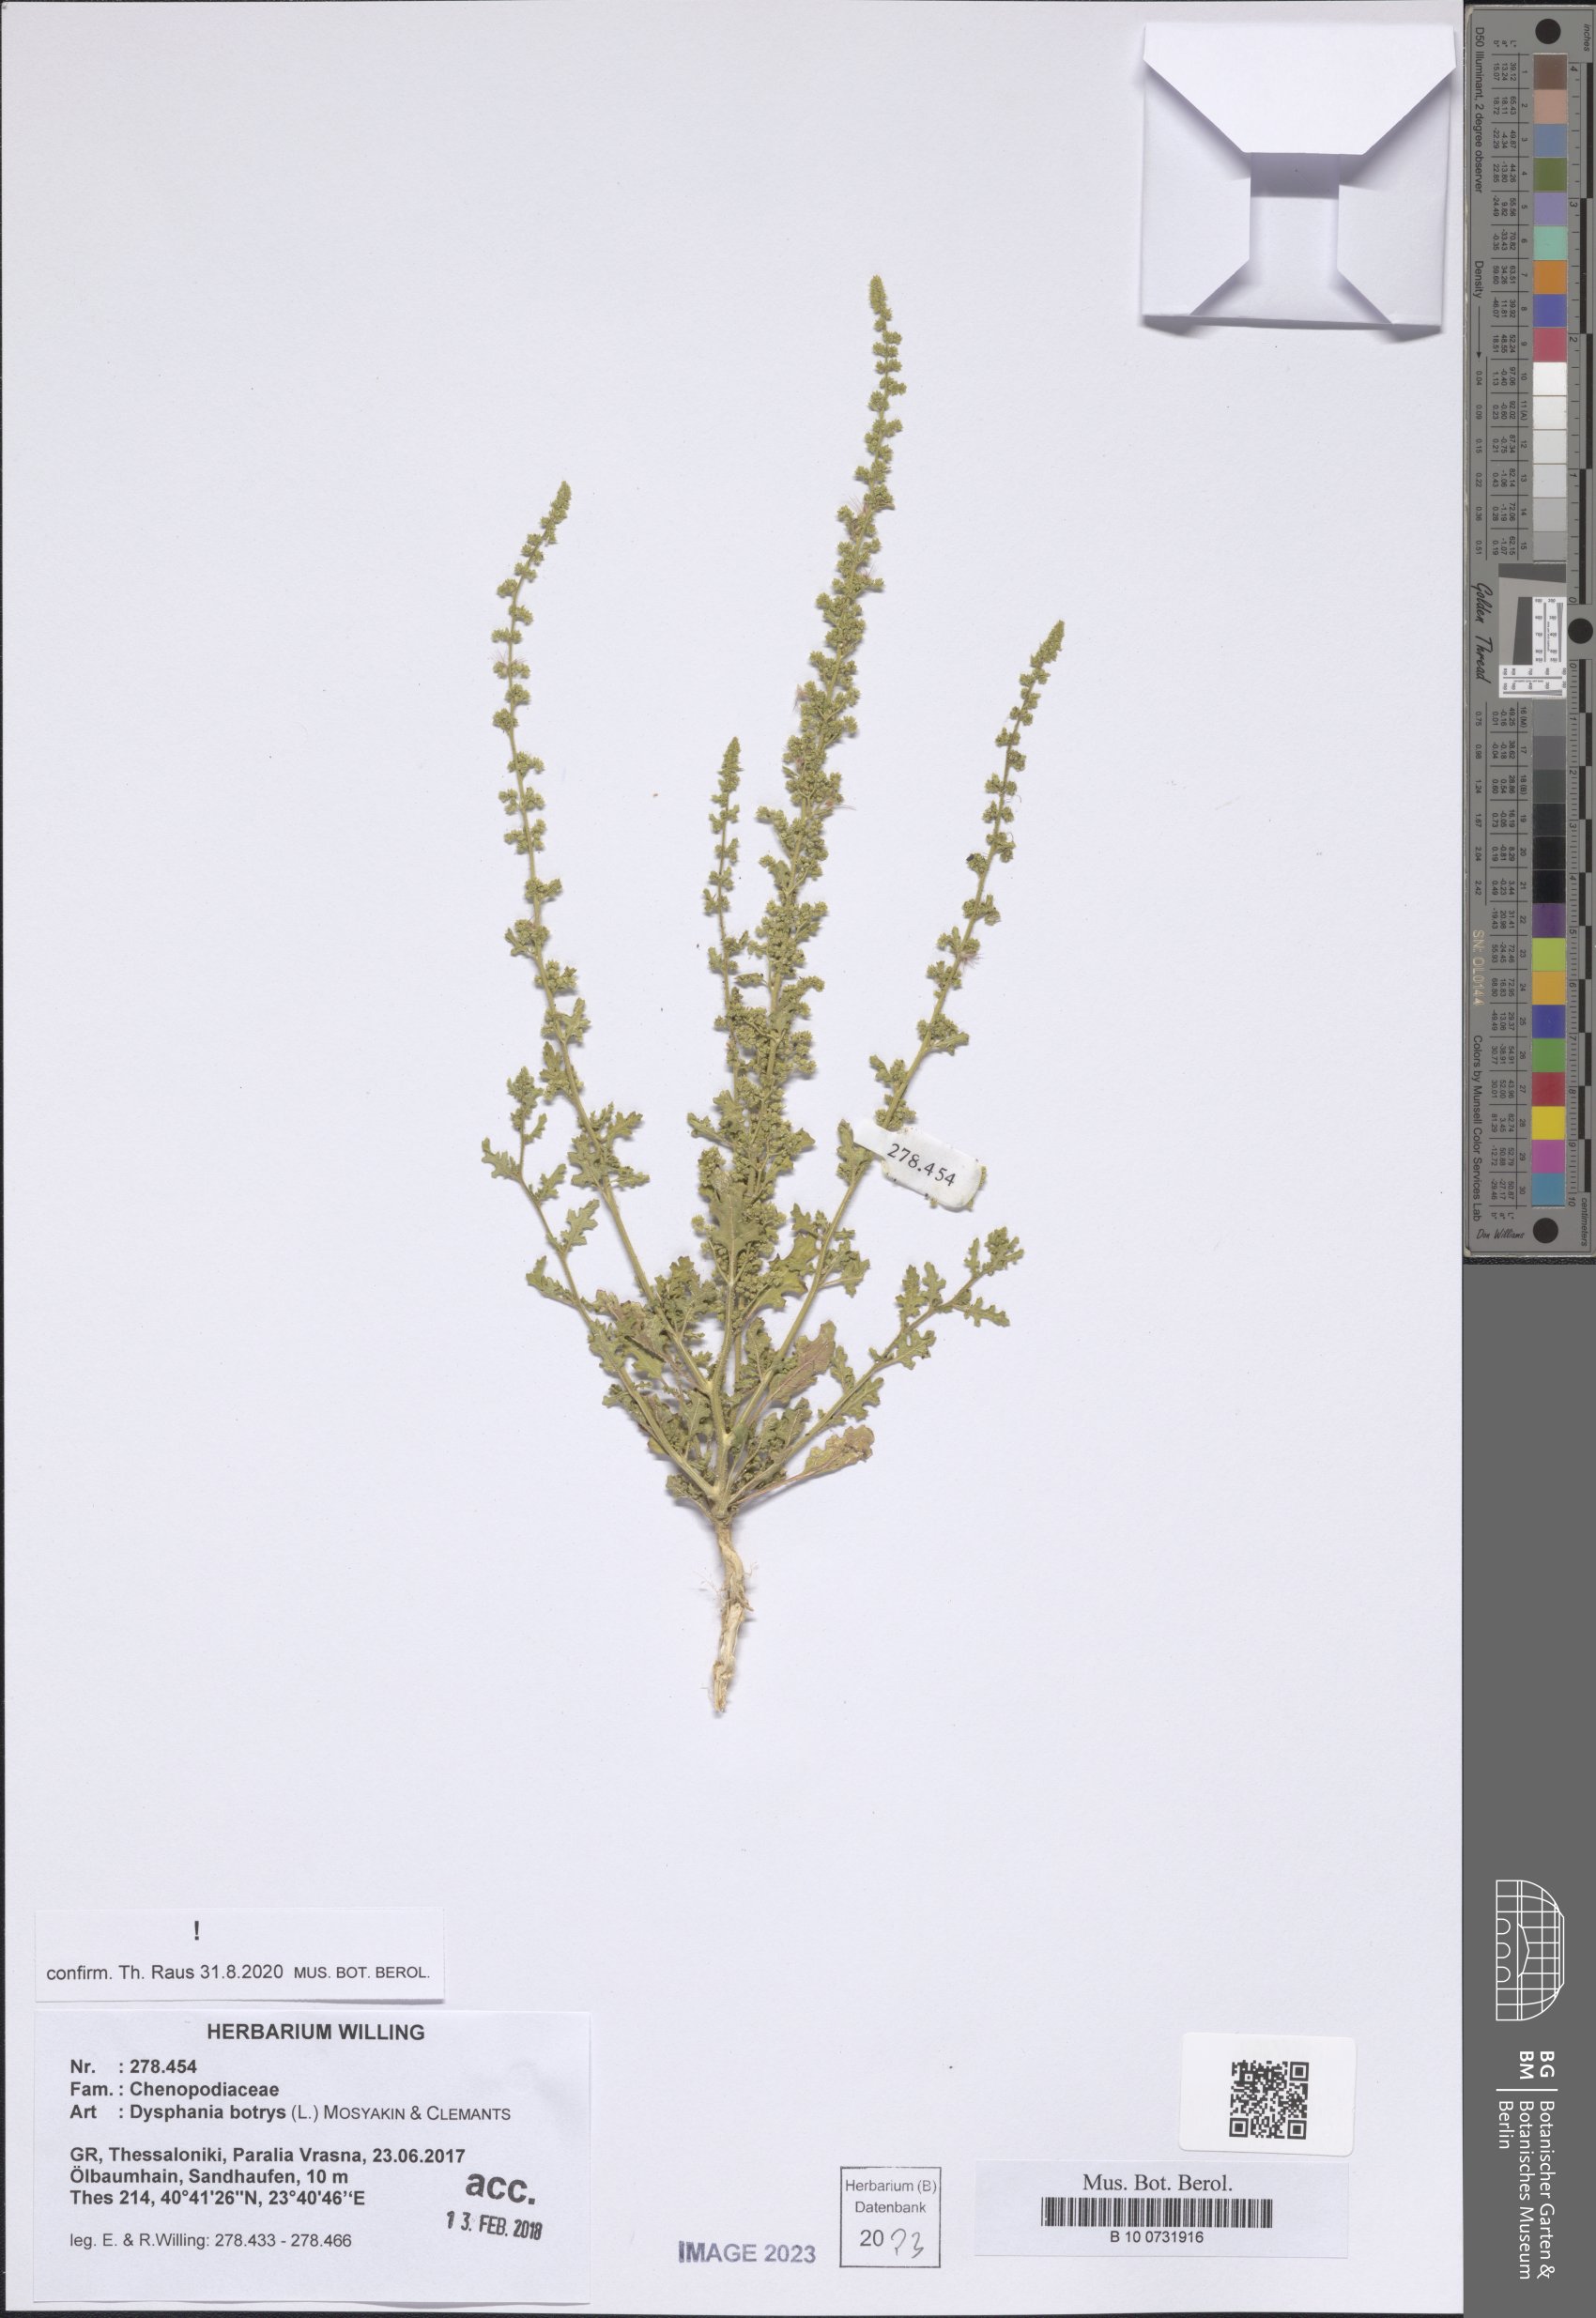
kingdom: Plantae
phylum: Tracheophyta
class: Magnoliopsida
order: Caryophyllales
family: Amaranthaceae
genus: Dysphania
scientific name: Dysphania botrys
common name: Feather-geranium
